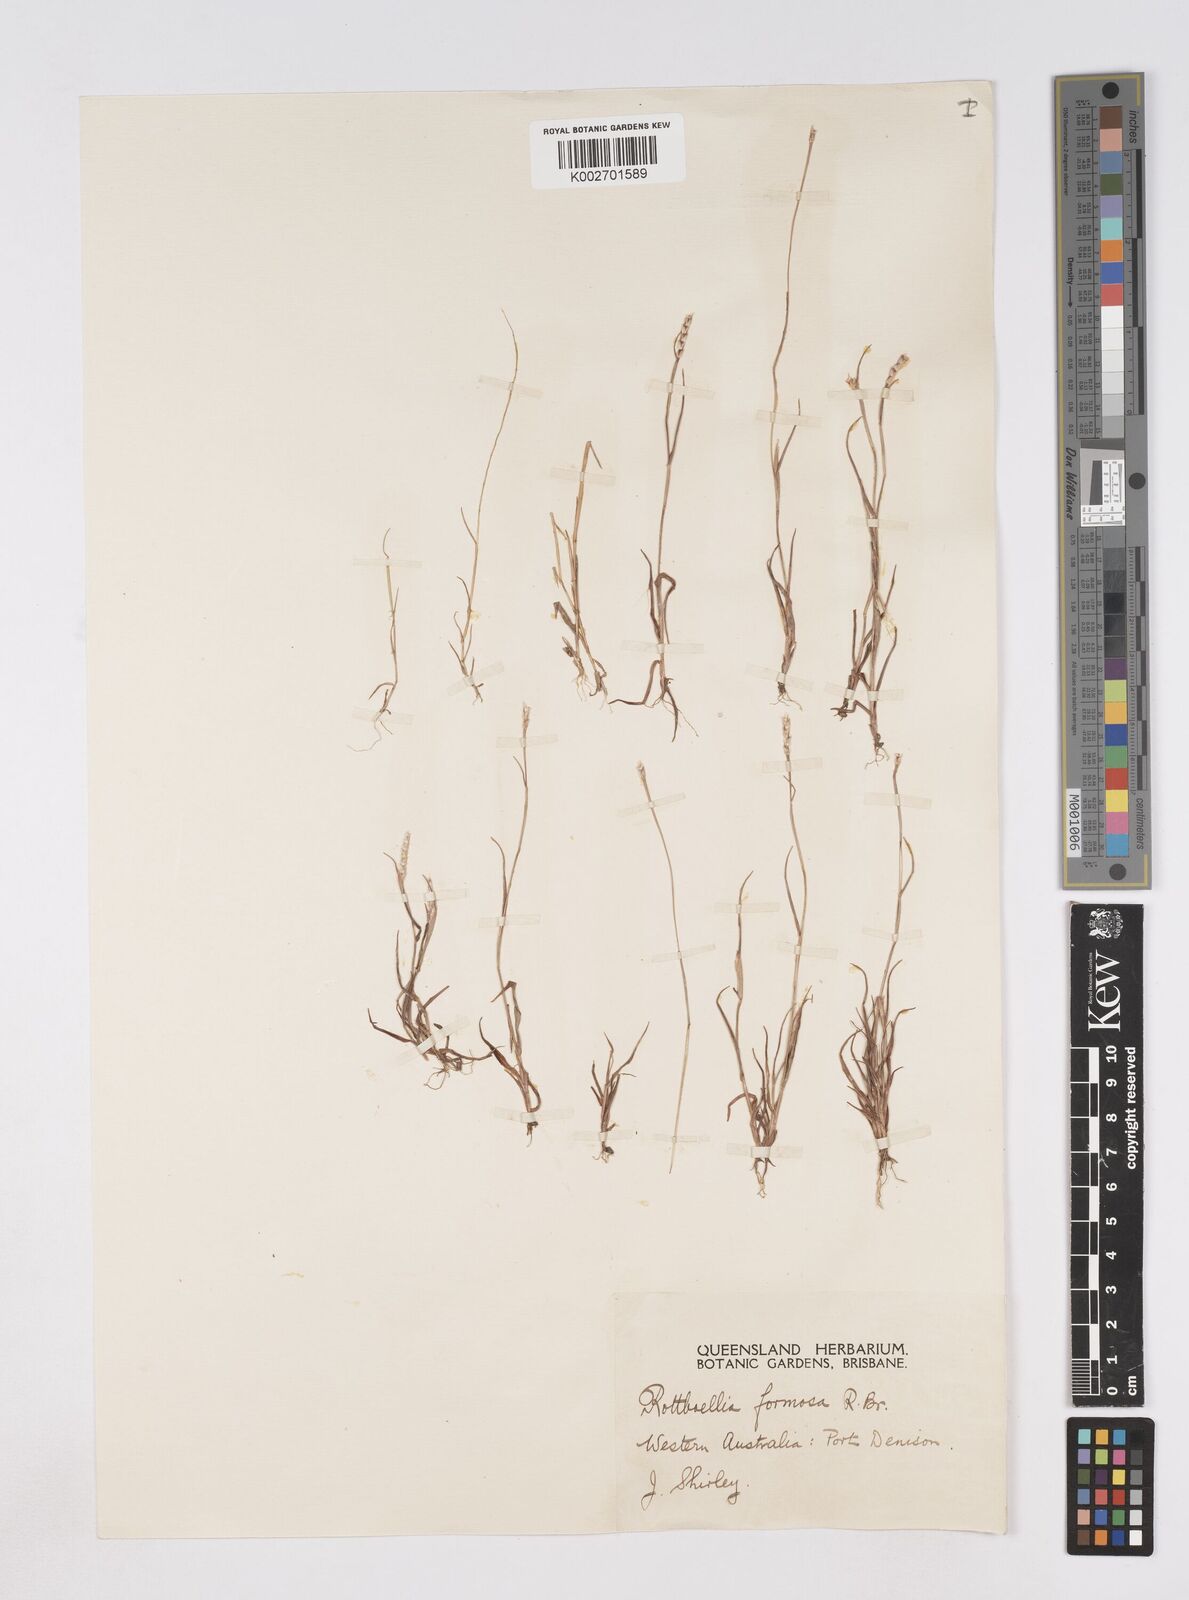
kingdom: Plantae
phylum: Tracheophyta
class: Liliopsida
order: Poales
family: Poaceae
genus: Heteropholis
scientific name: Heteropholis
